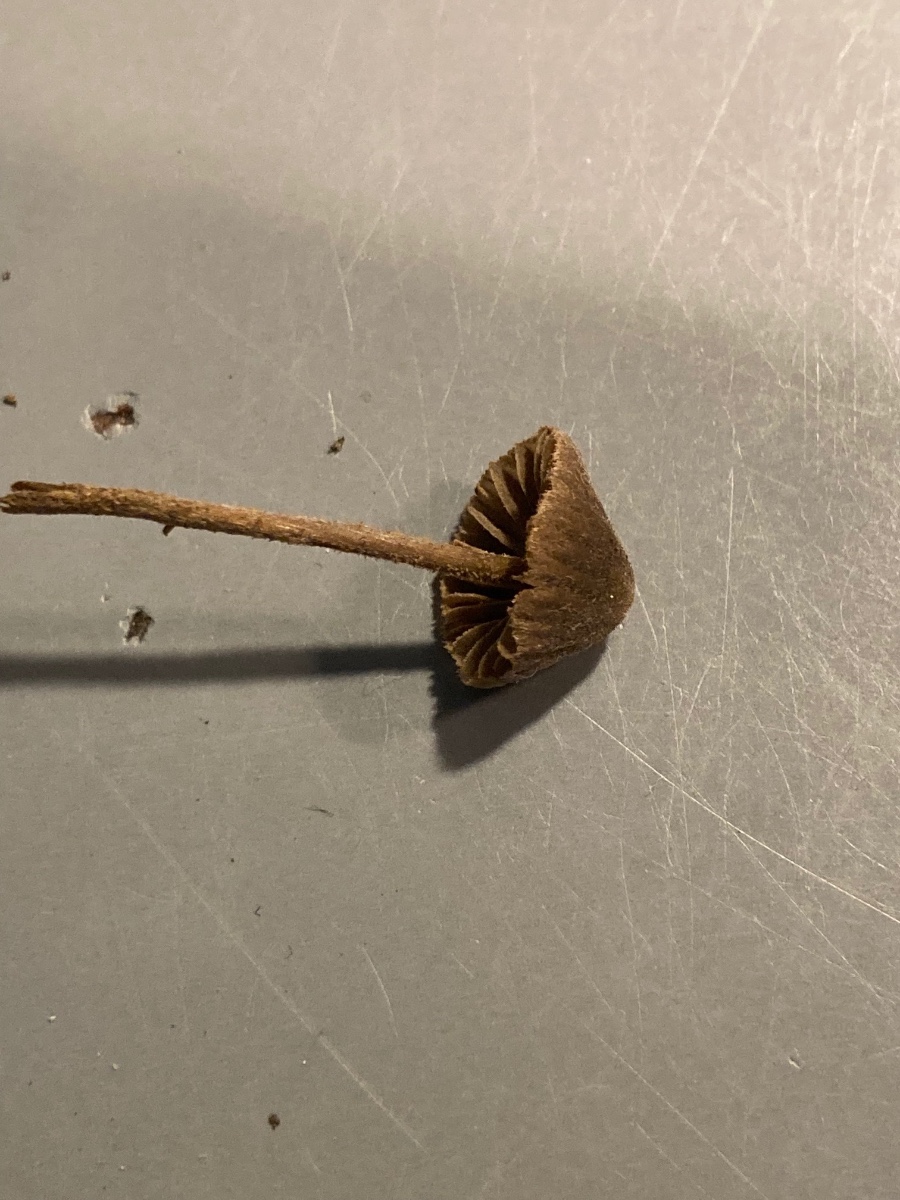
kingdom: Fungi
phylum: Basidiomycota
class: Agaricomycetes
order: Agaricales
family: Entolomataceae
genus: Entoloma
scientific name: Entoloma dysthales
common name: gråhåret rødblad
